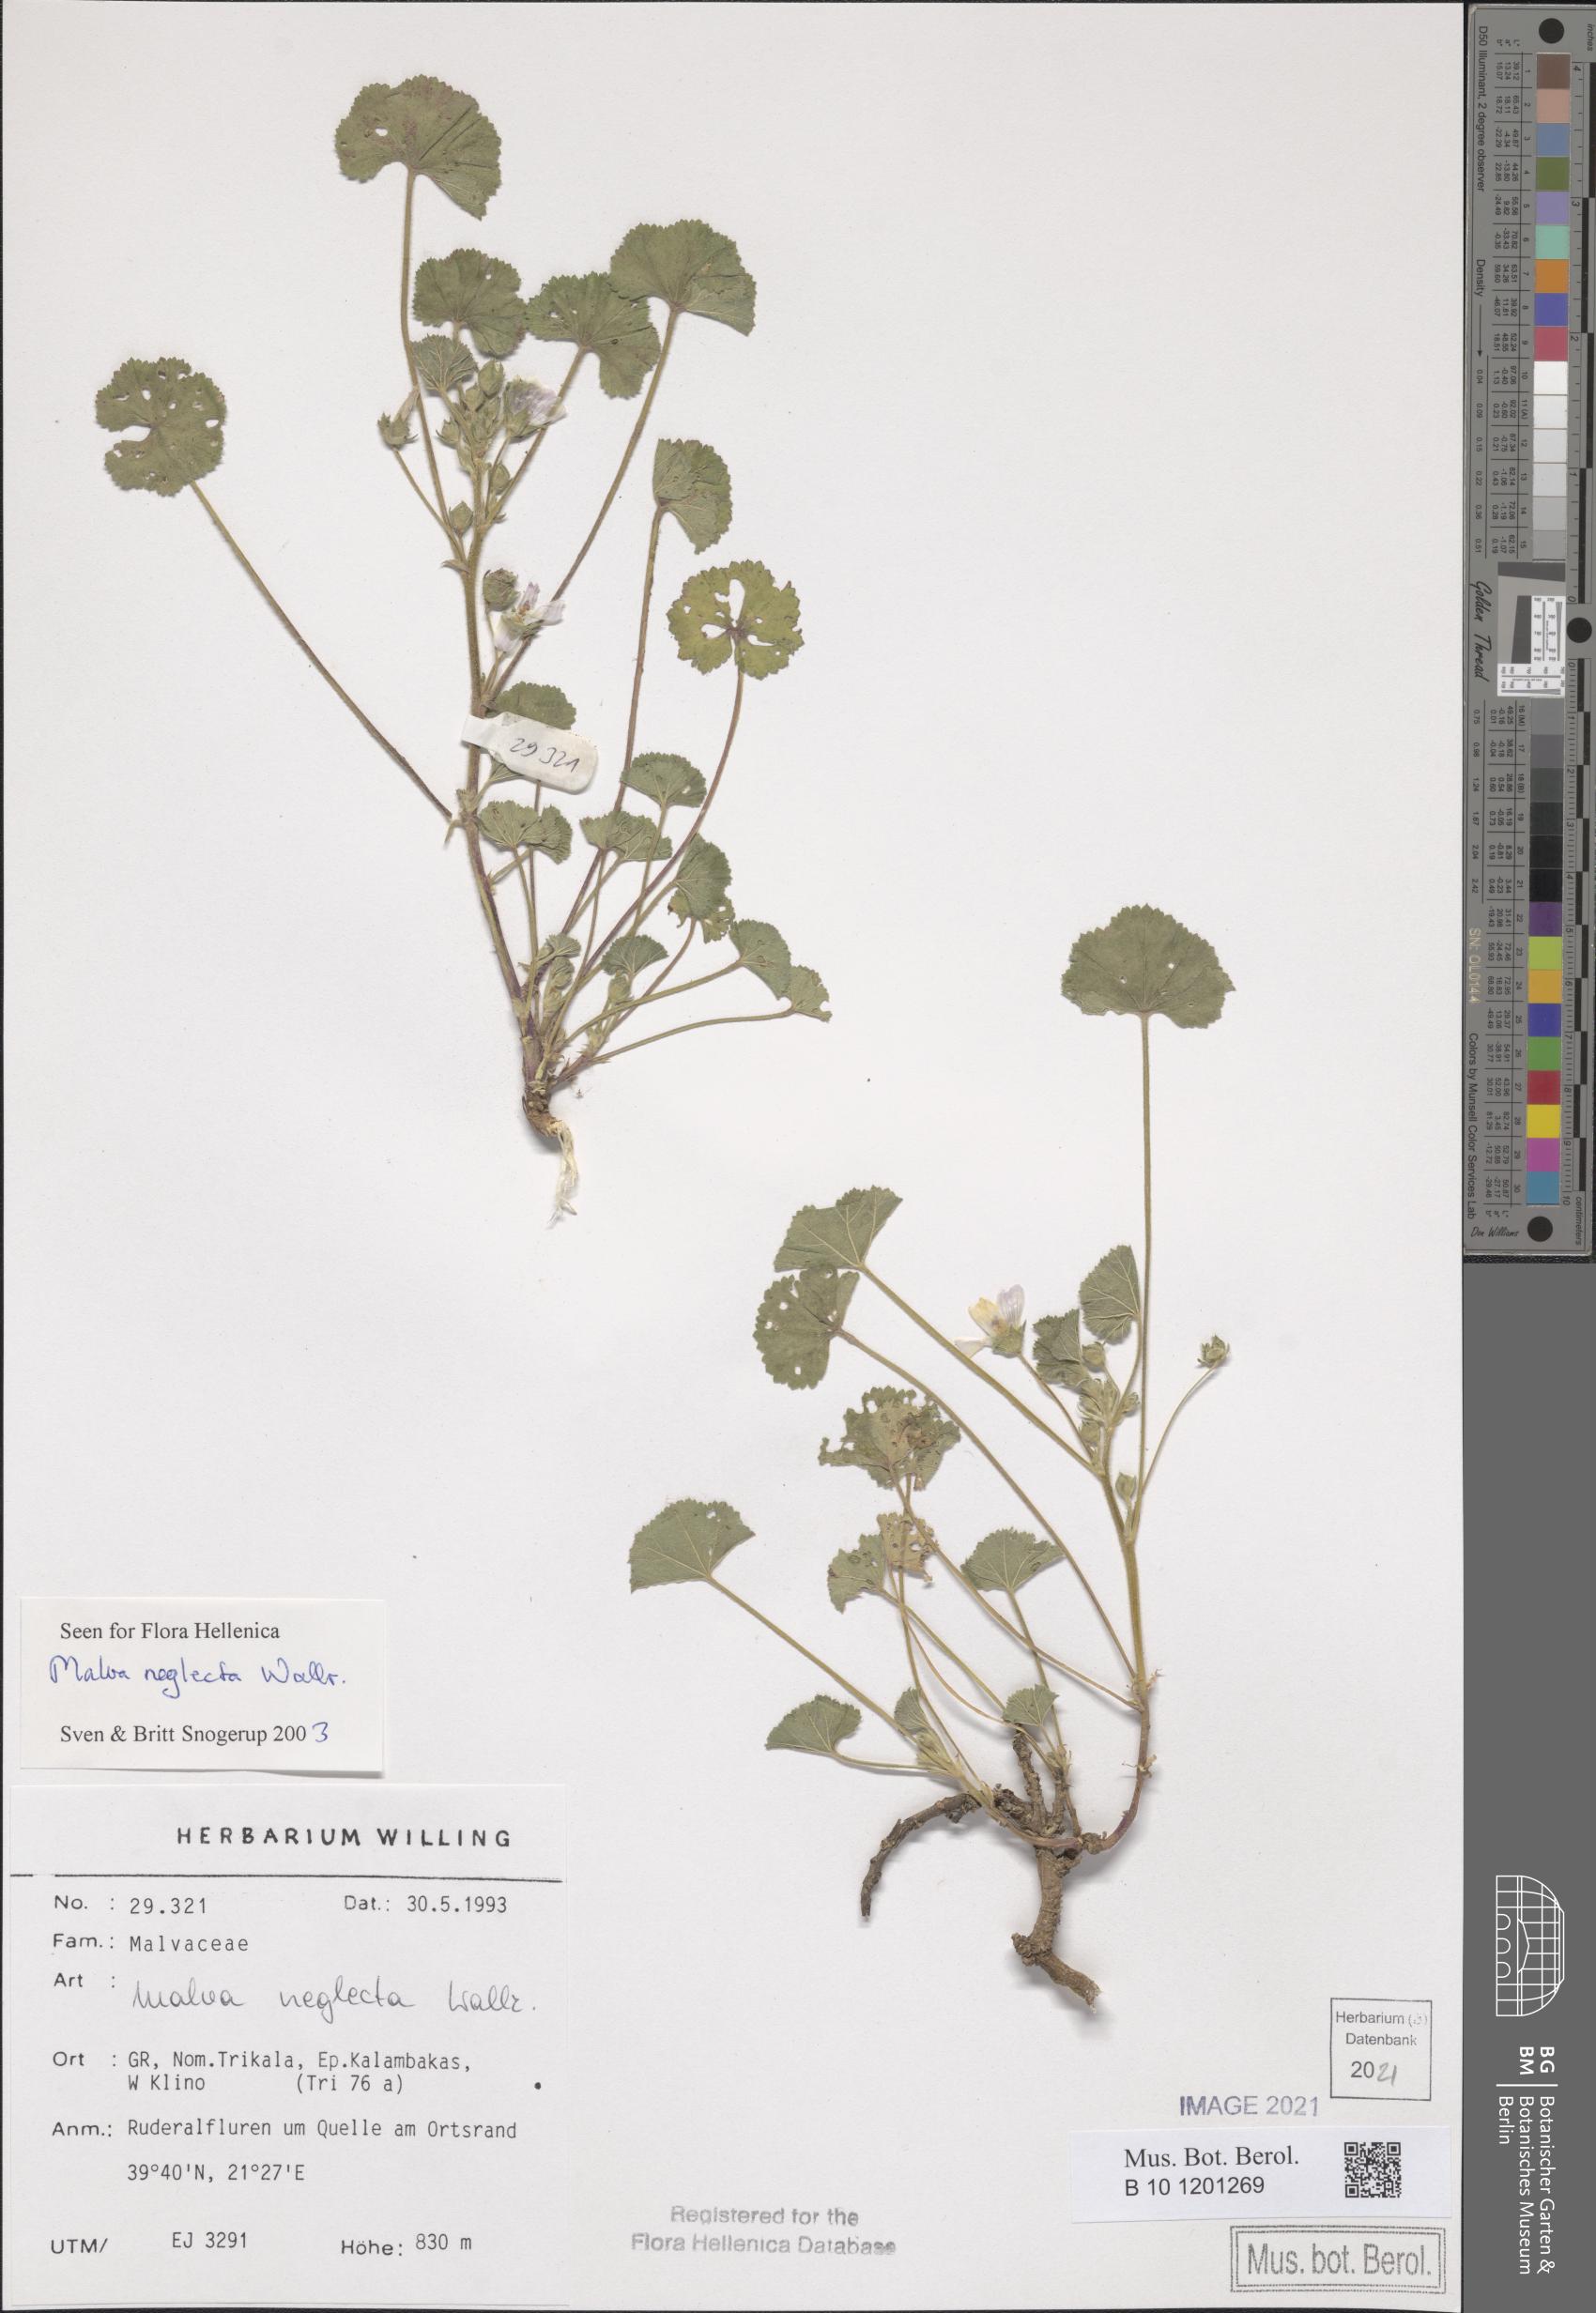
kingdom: Plantae
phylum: Tracheophyta
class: Magnoliopsida
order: Malvales
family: Malvaceae
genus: Malva
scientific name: Malva neglecta
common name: Common mallow
